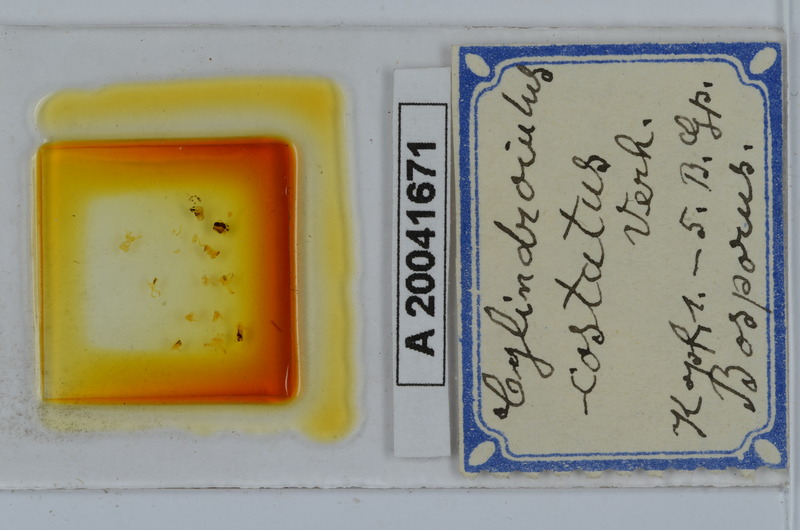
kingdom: Animalia
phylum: Arthropoda
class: Diplopoda
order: Julida
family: Julidae
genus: Cylindroiulus
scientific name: Cylindroiulus bellus
